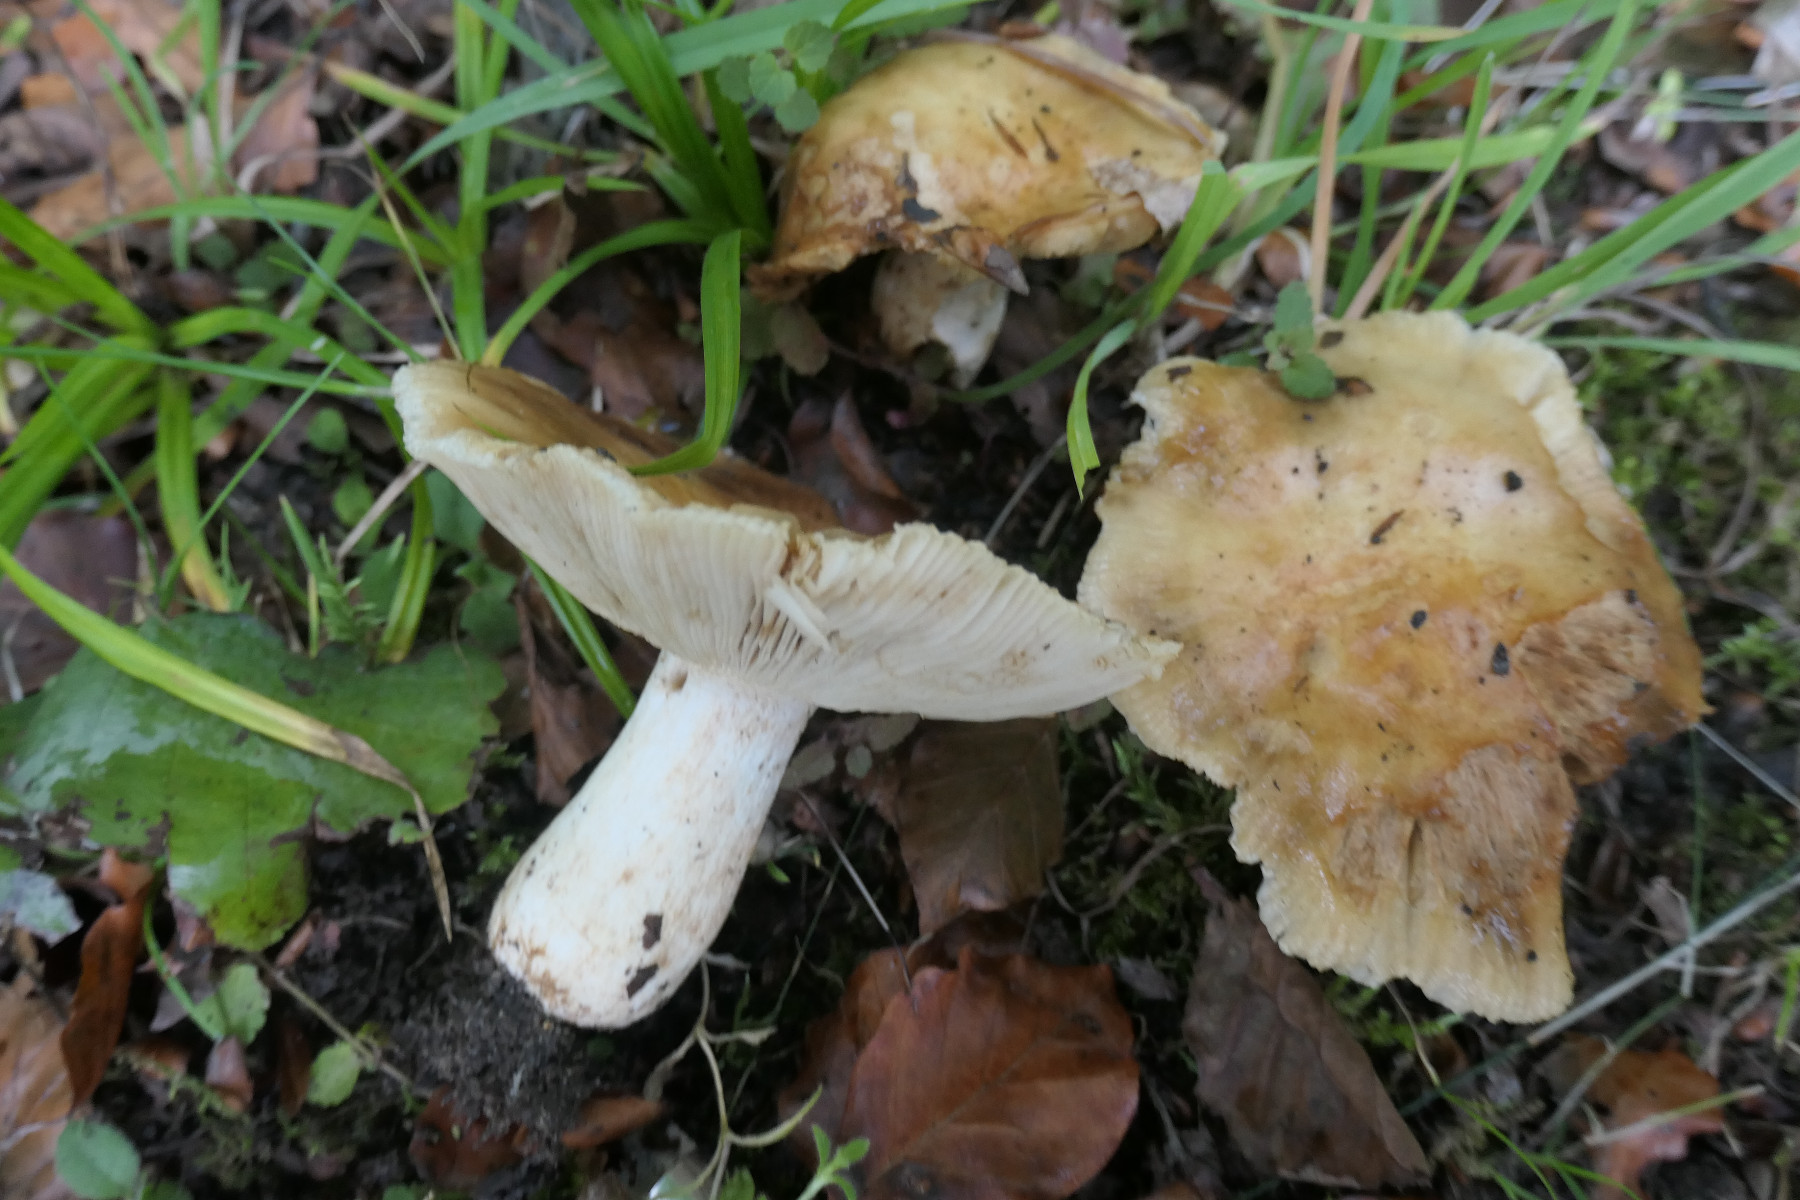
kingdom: Fungi
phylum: Basidiomycota
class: Agaricomycetes
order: Russulales
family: Russulaceae
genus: Russula
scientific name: Russula foetens
